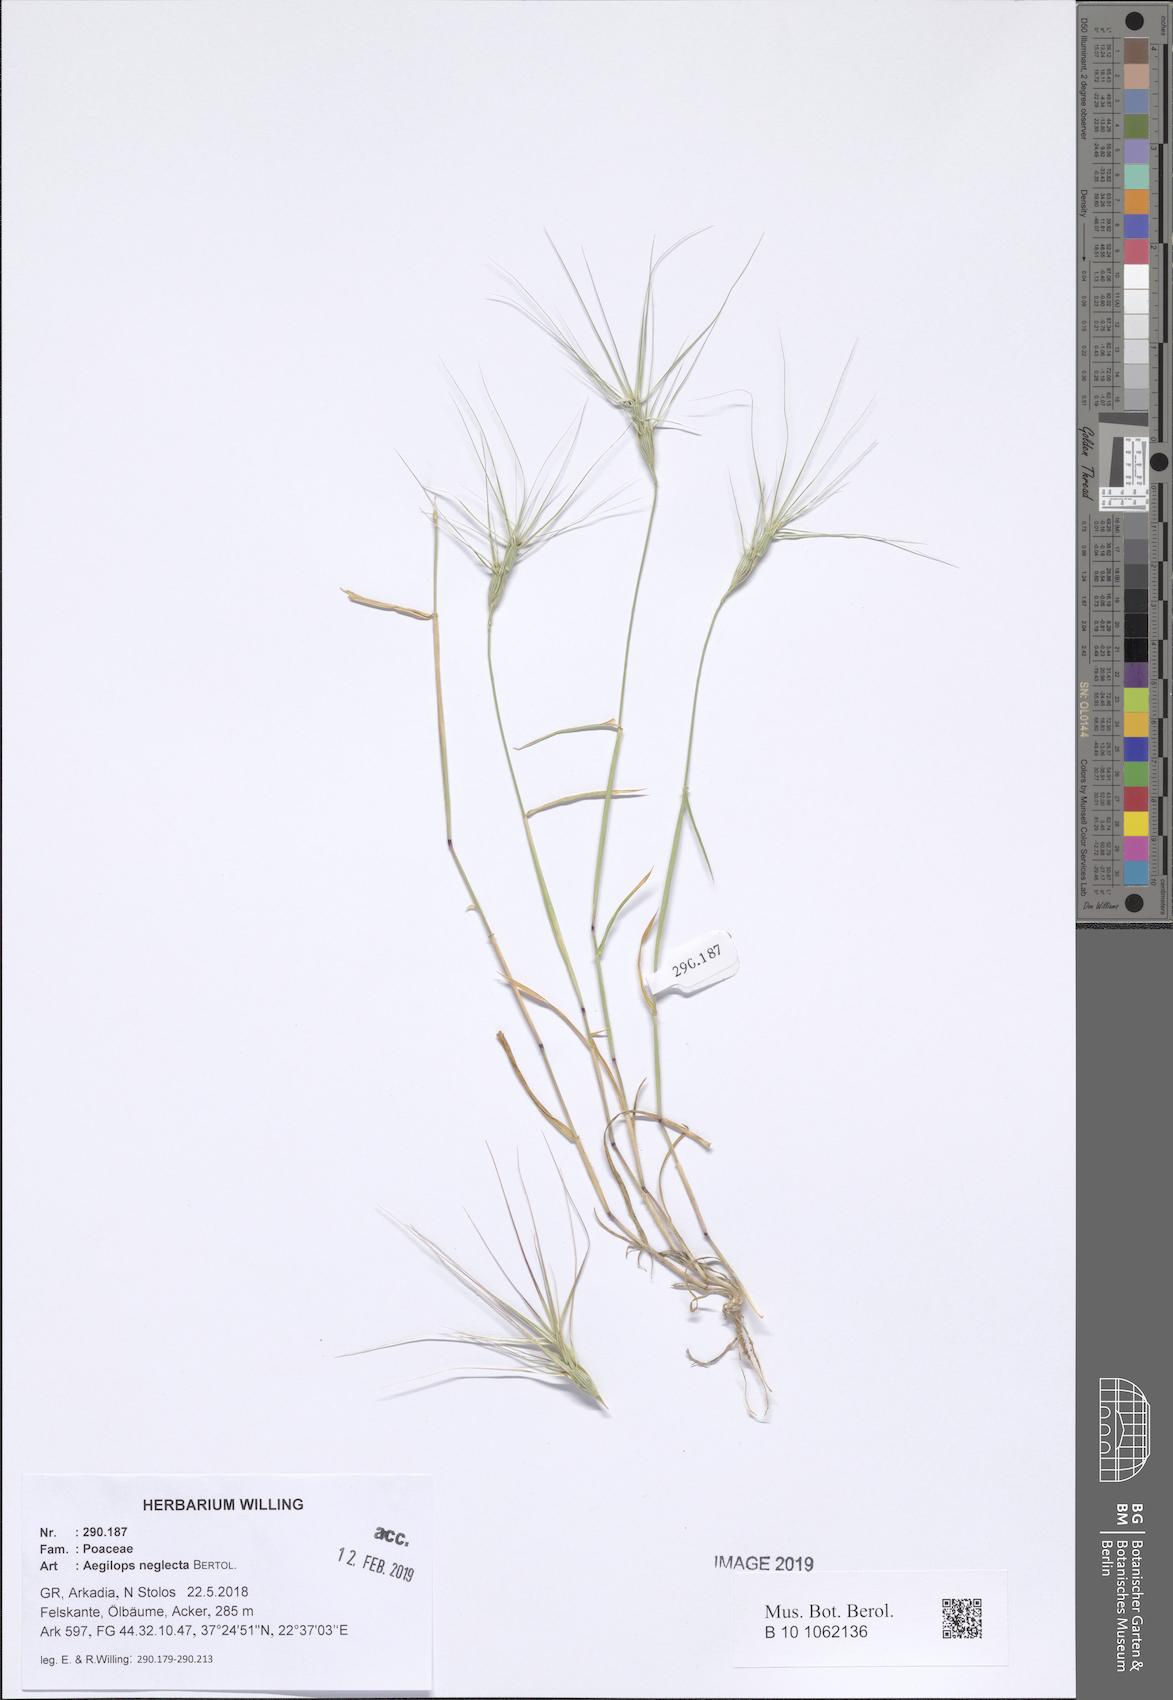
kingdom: Plantae
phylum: Tracheophyta
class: Liliopsida
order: Poales
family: Poaceae
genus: Aegilops
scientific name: Aegilops neglecta
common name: Three-awn goat grass
